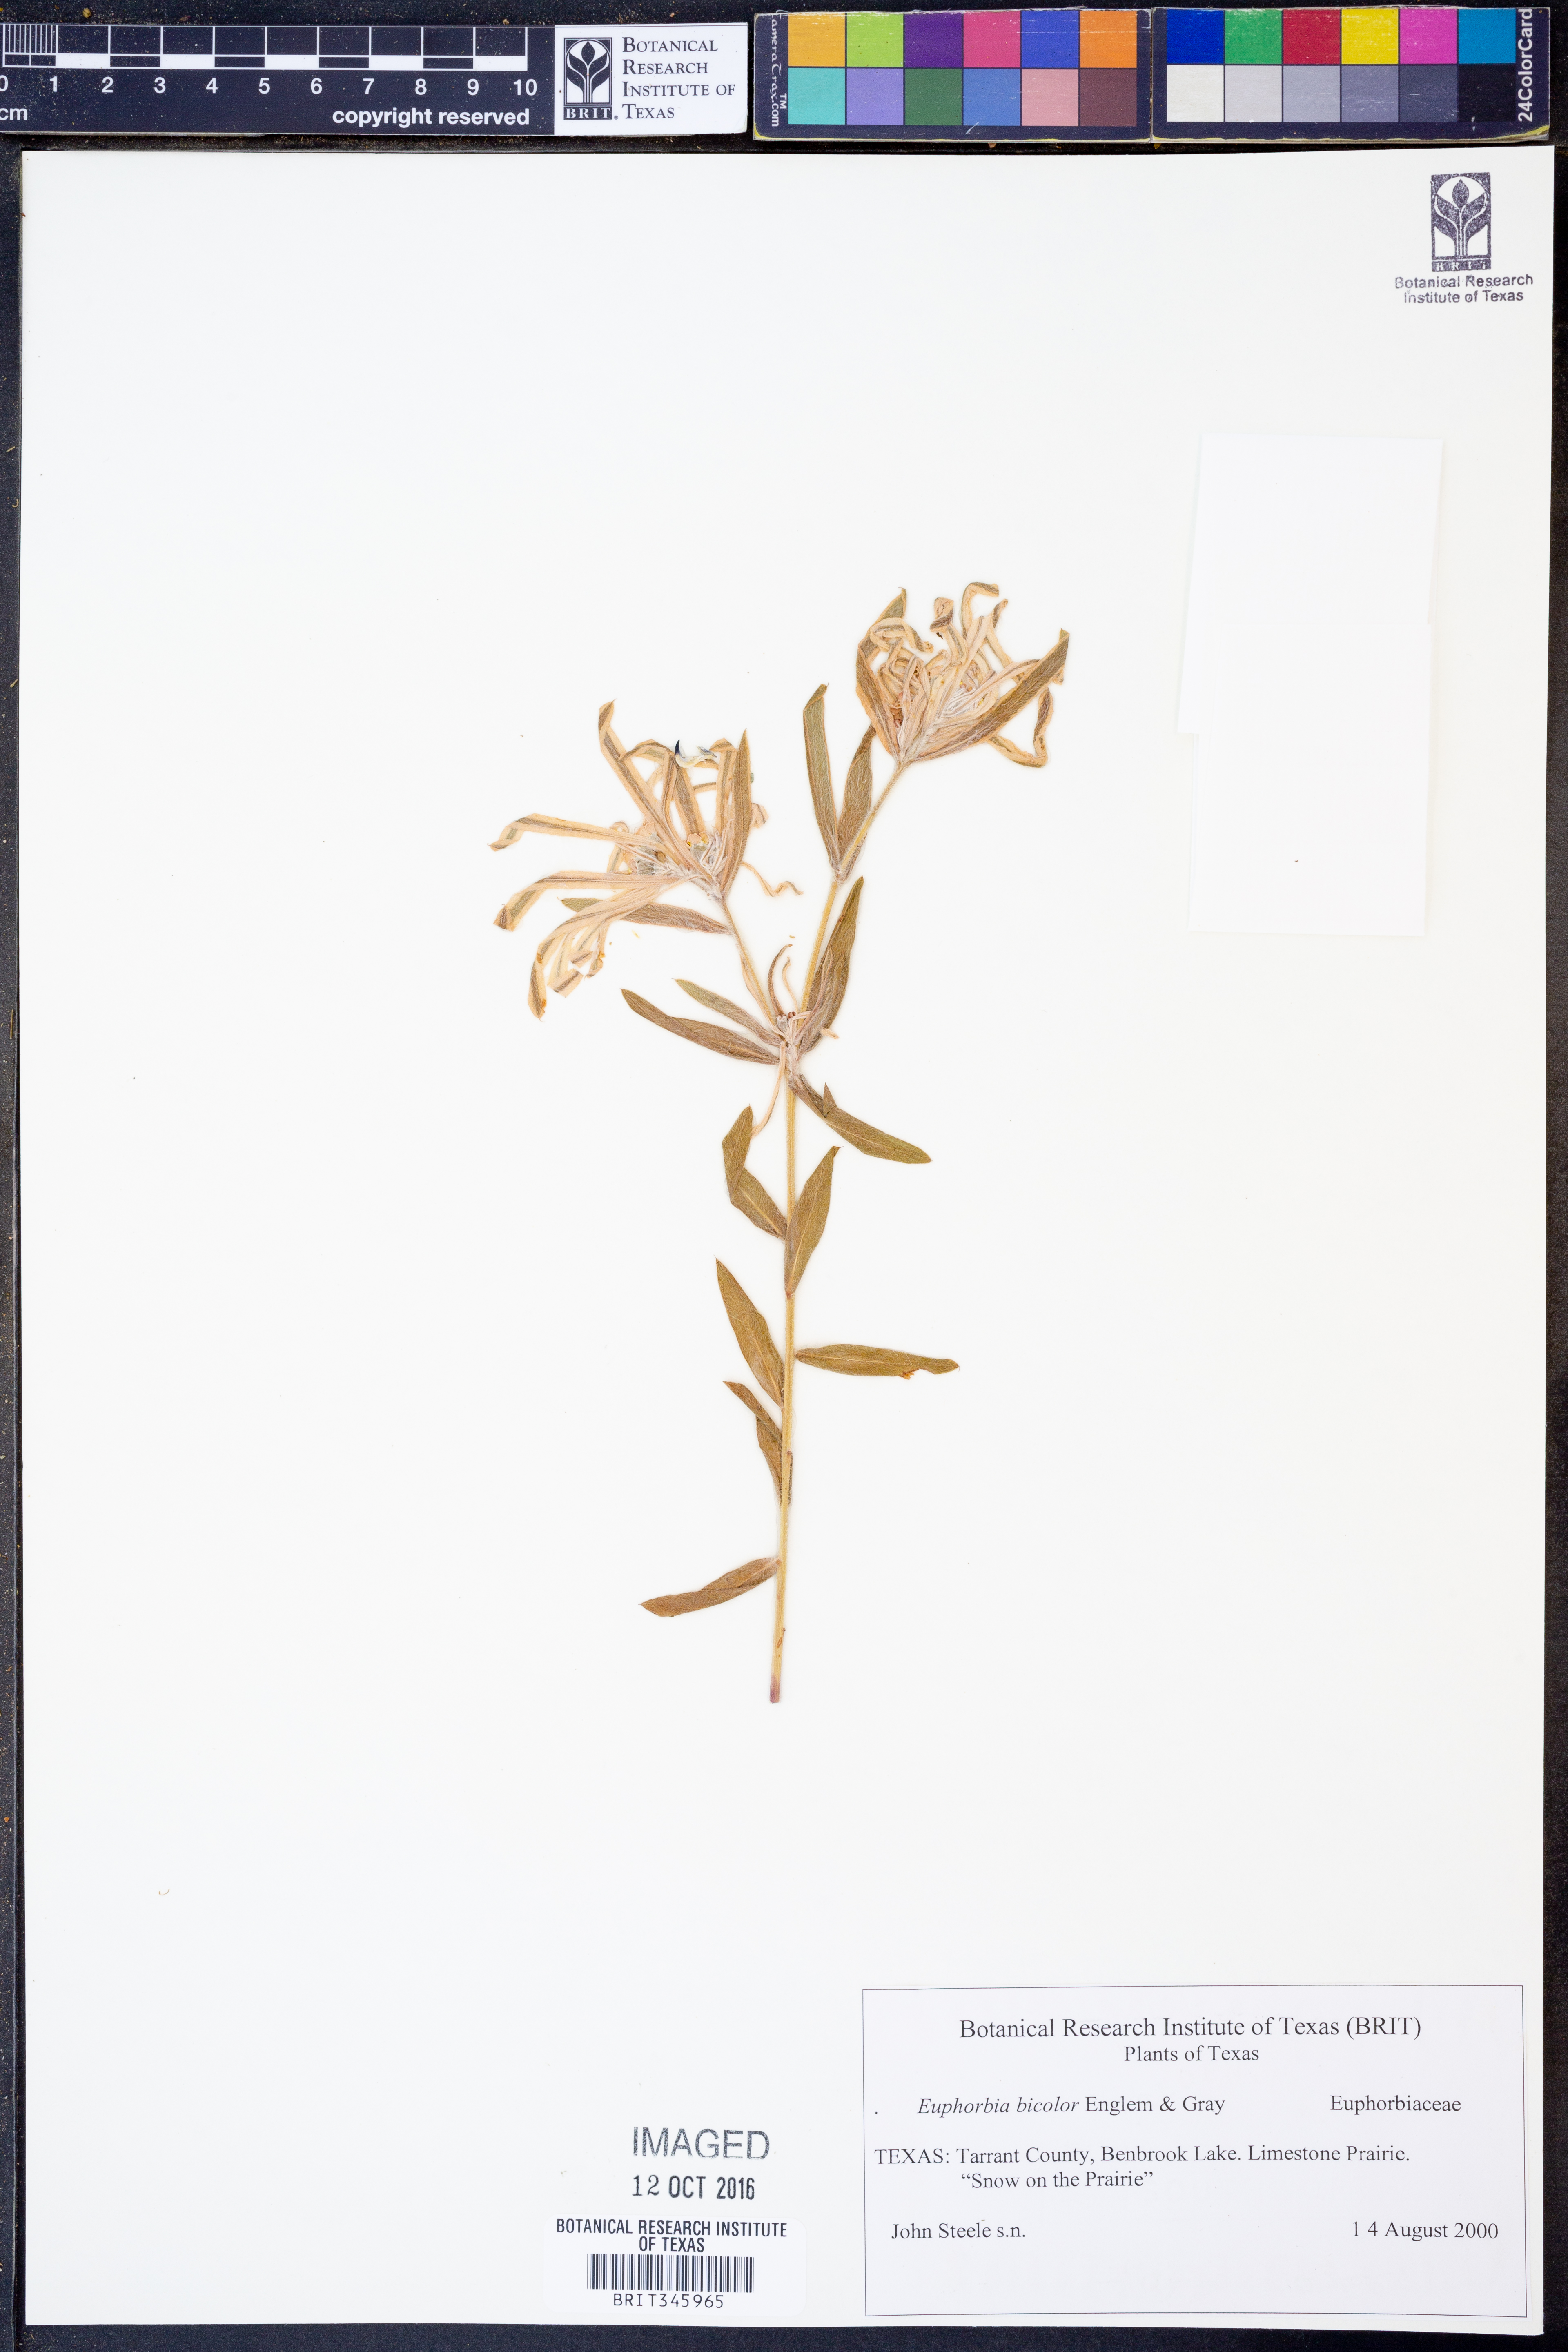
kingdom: Plantae
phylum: Tracheophyta
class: Magnoliopsida
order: Malpighiales
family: Euphorbiaceae
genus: Euphorbia
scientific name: Euphorbia bicolor
